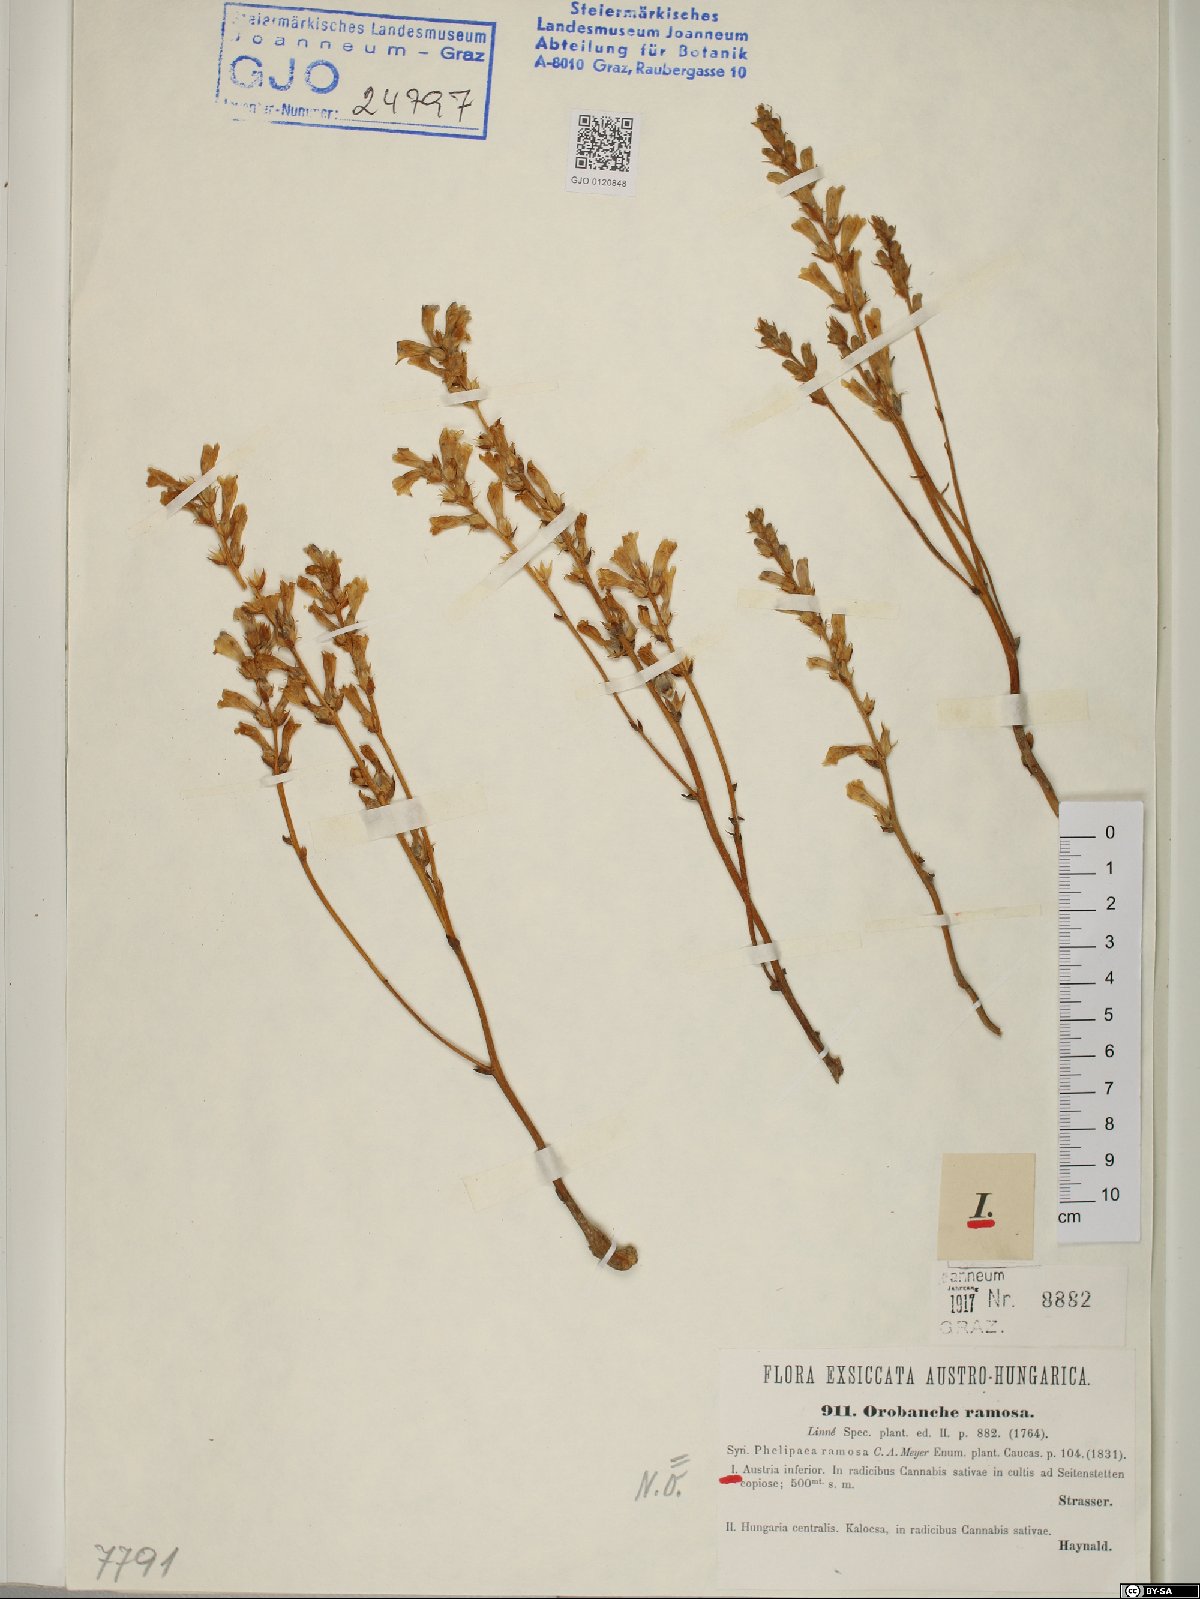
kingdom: Plantae
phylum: Tracheophyta
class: Magnoliopsida
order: Lamiales
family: Orobanchaceae
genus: Phelipanche
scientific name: Phelipanche ramosa
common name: Branched broomrape
